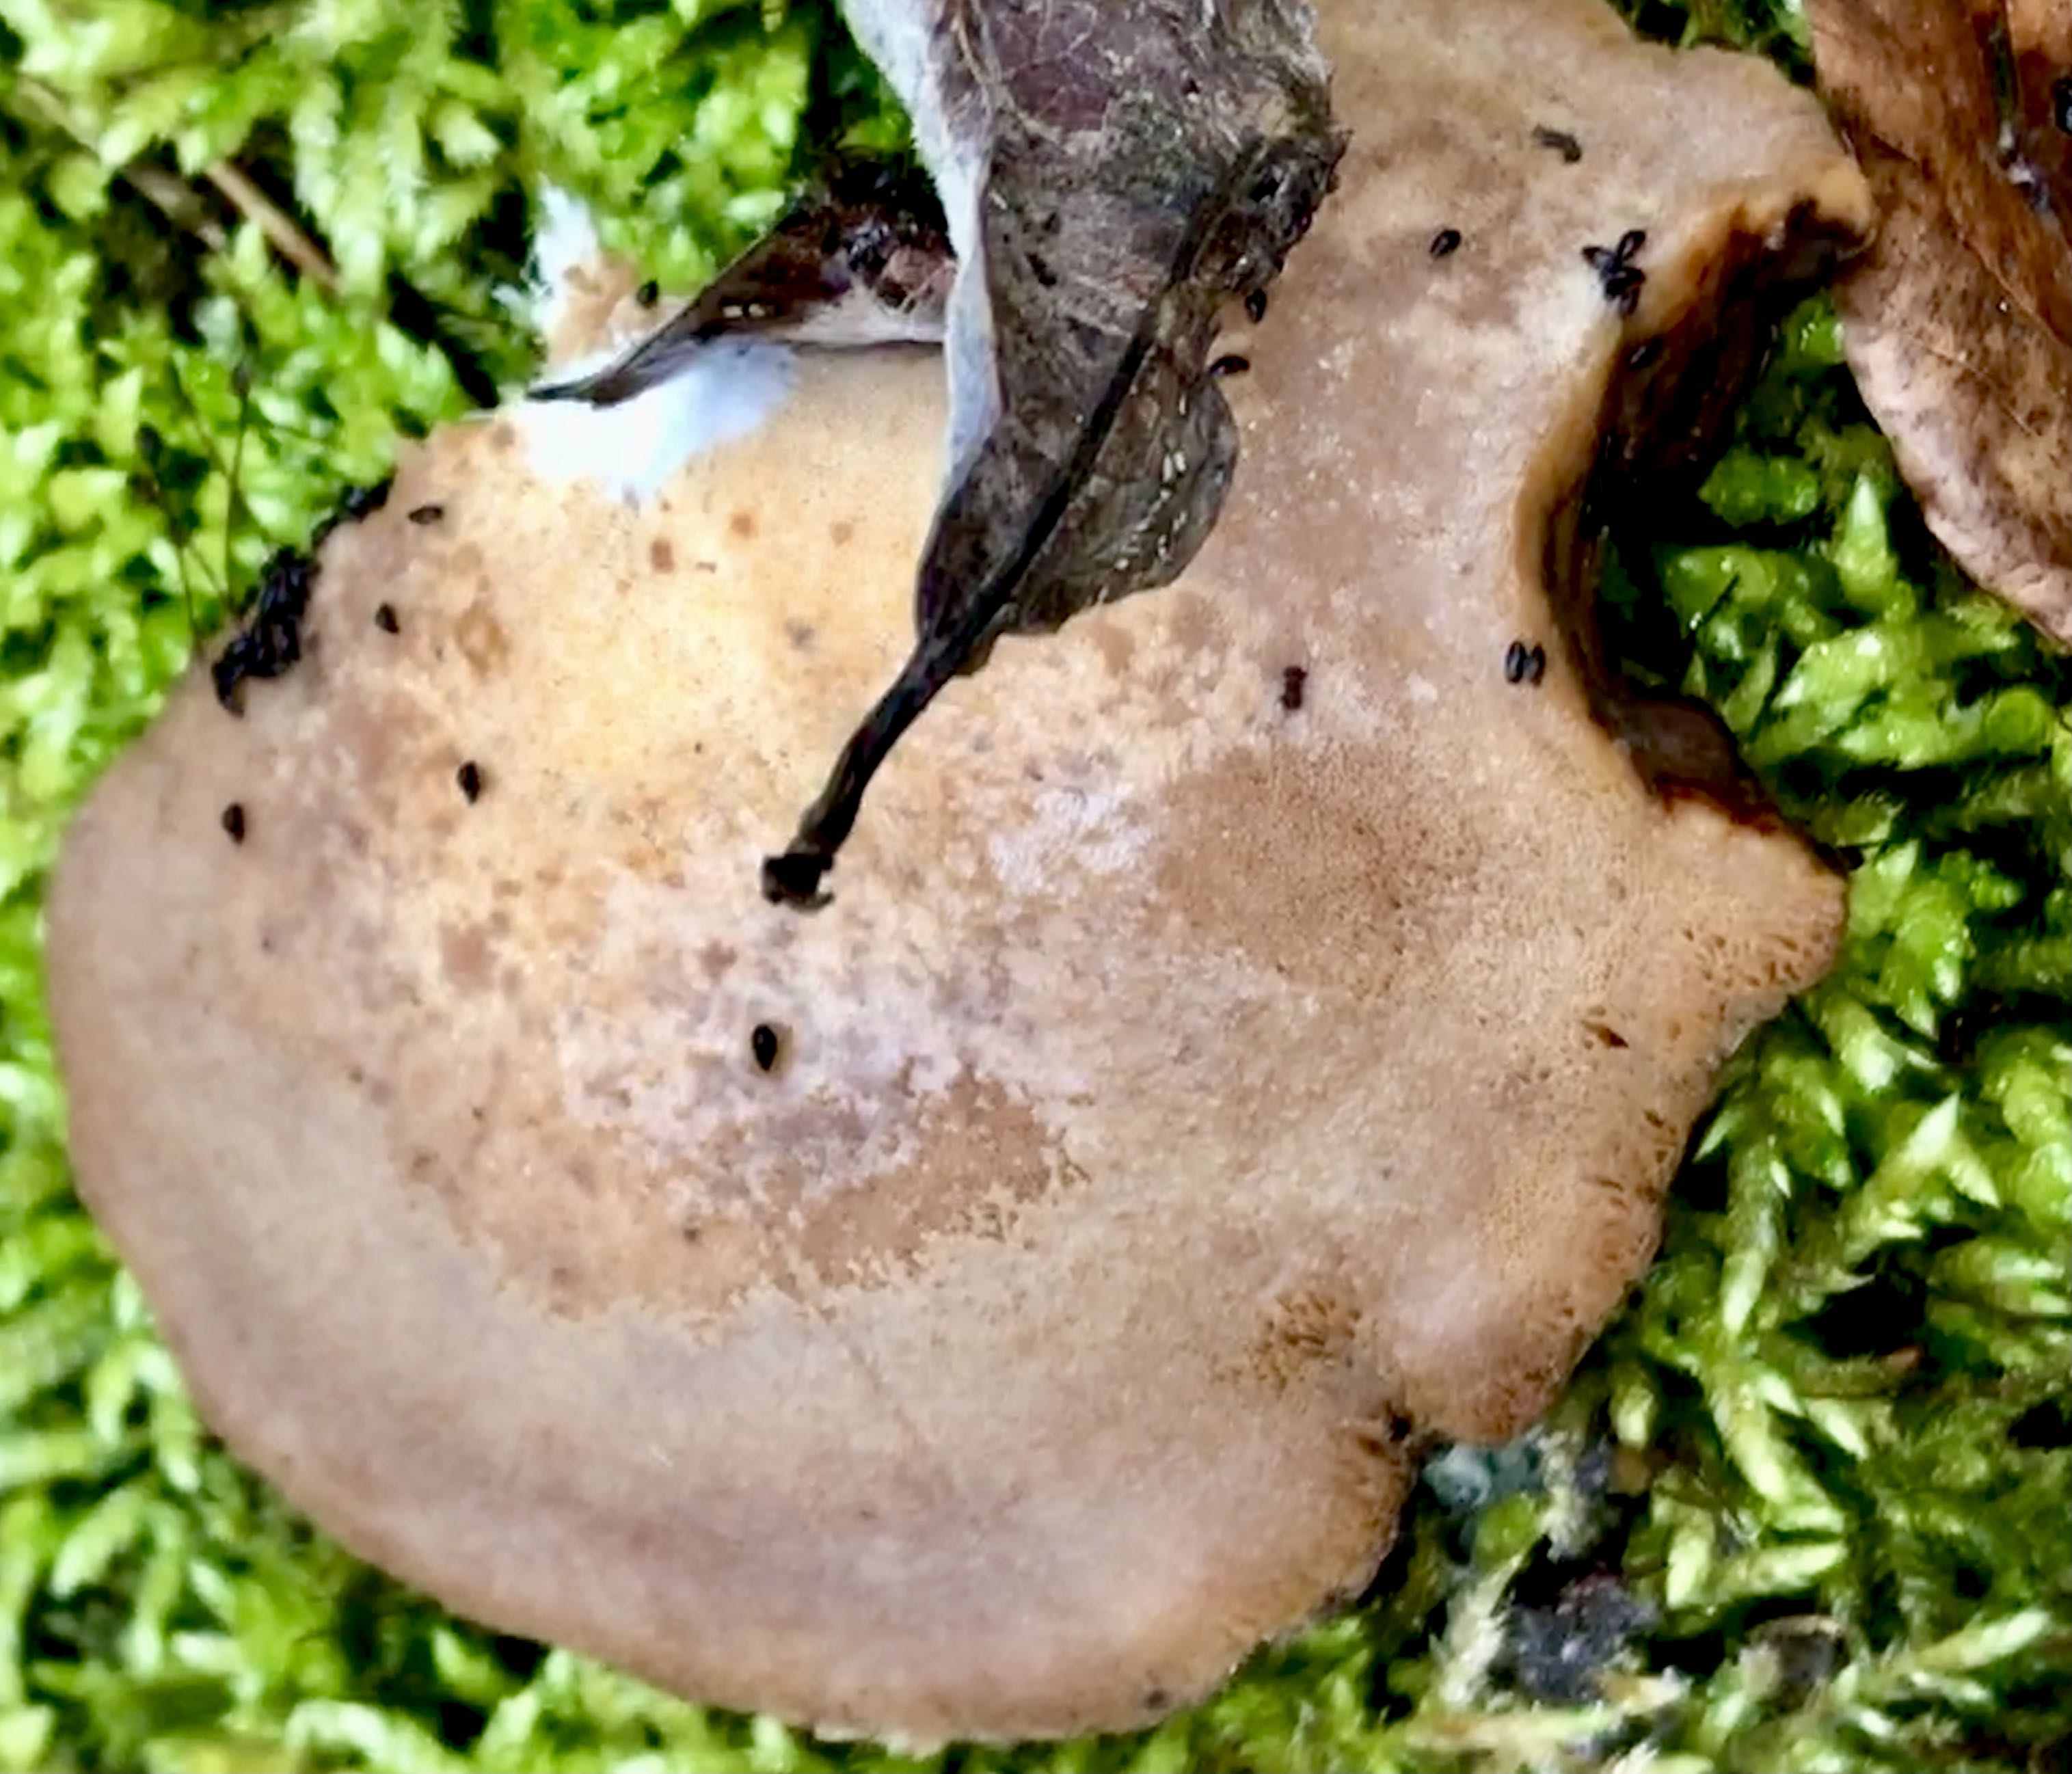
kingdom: Fungi
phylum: Basidiomycota
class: Agaricomycetes
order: Polyporales
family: Ischnodermataceae
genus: Ischnoderma
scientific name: Ischnoderma resinosum
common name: løv-tjæreporesvamp
